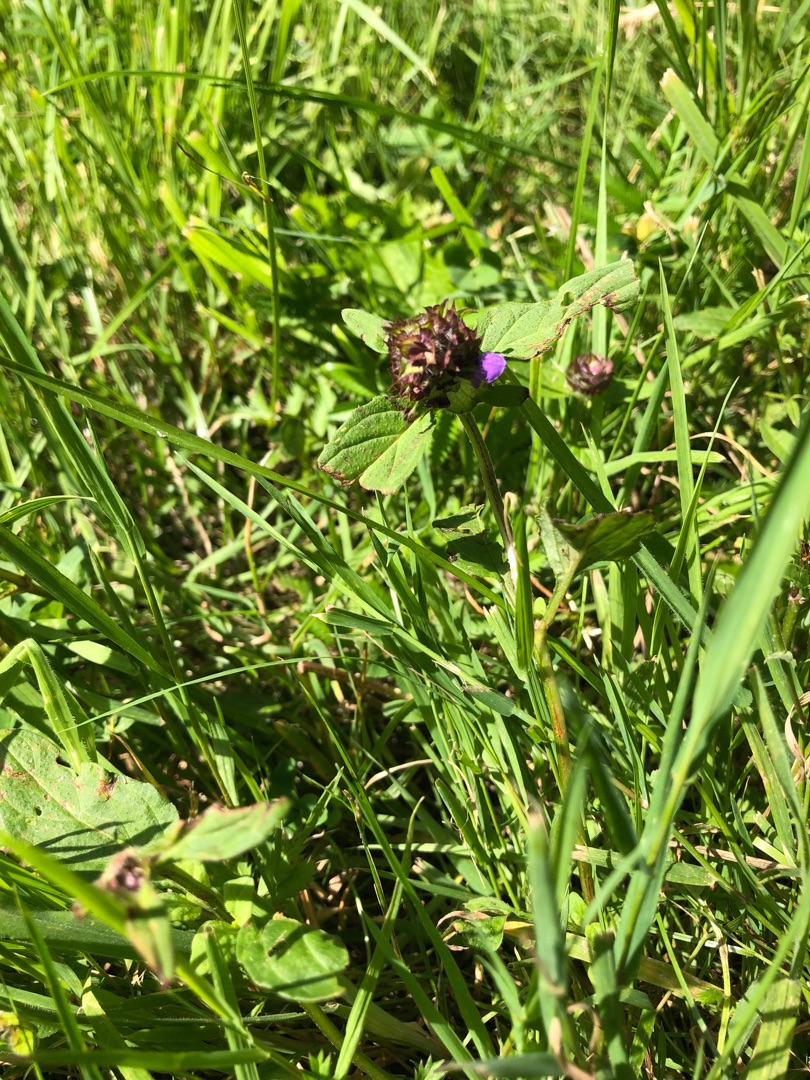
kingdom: Plantae
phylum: Tracheophyta
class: Magnoliopsida
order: Lamiales
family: Lamiaceae
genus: Prunella
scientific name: Prunella vulgaris
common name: Almindelig brunelle
